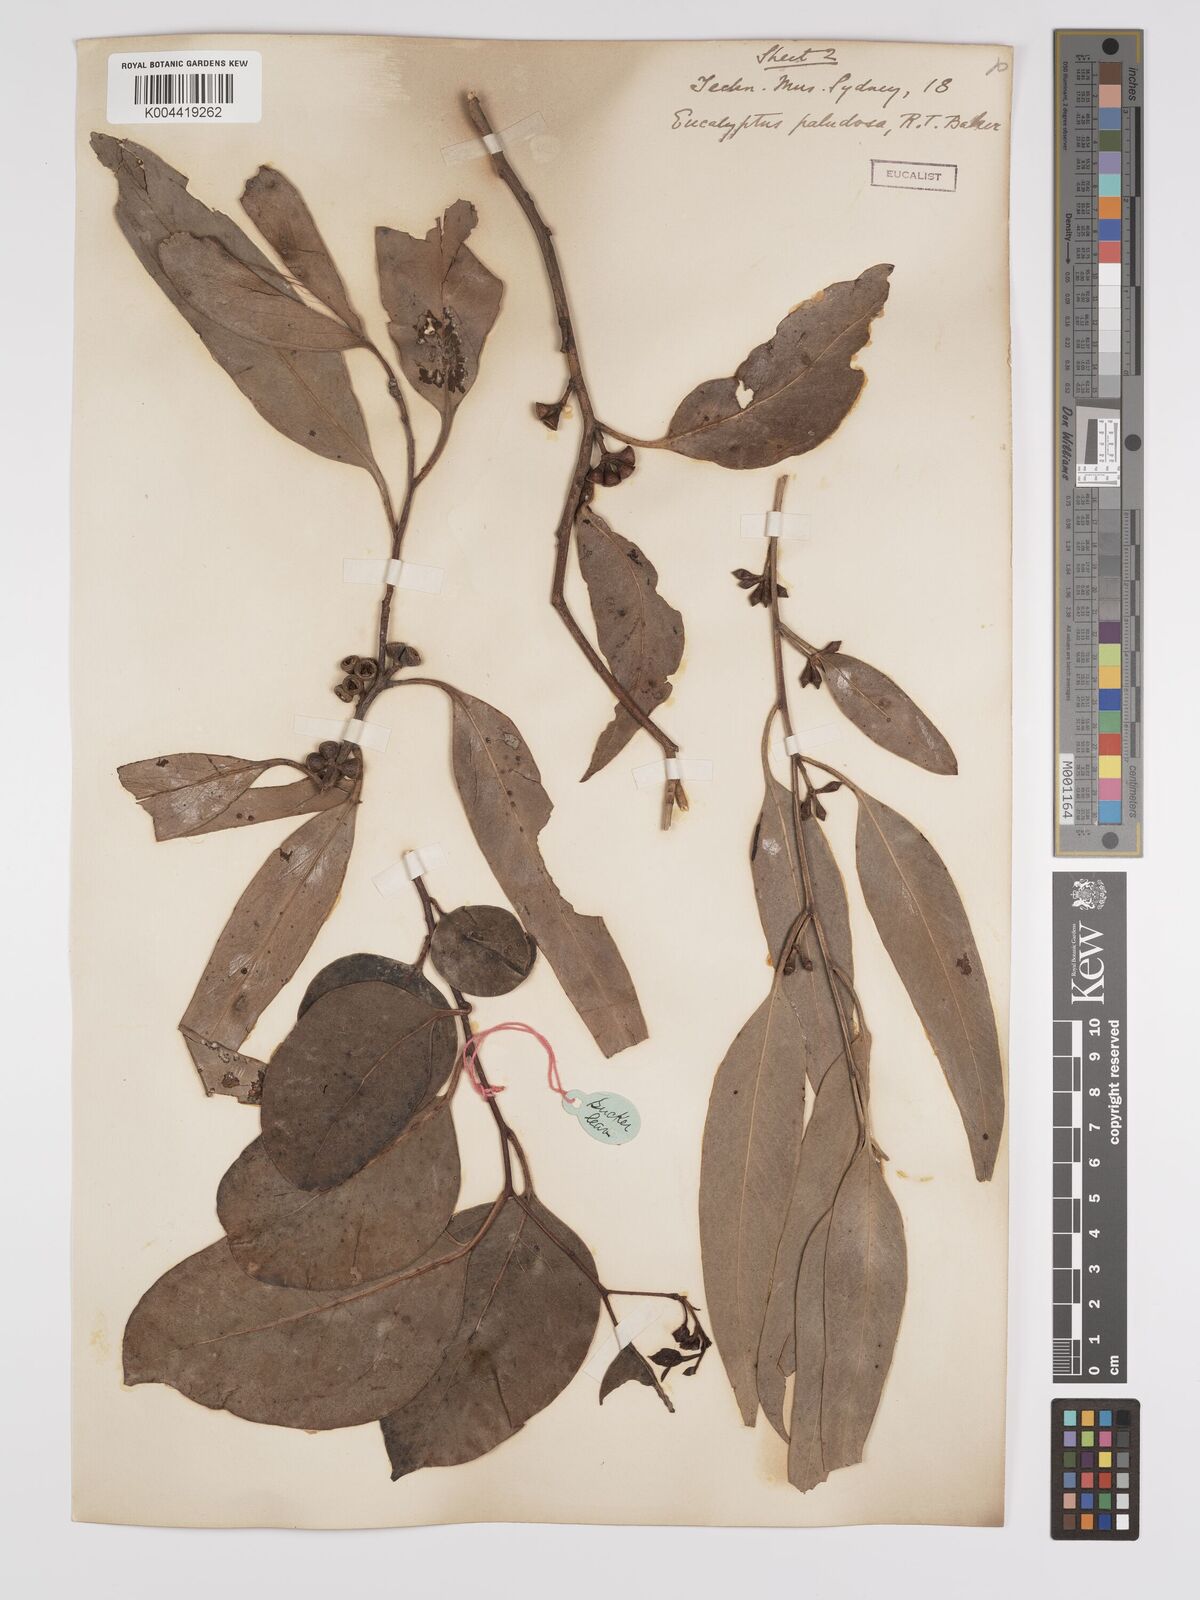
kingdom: Plantae
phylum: Tracheophyta
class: Magnoliopsida
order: Myrtales
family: Myrtaceae
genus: Eucalyptus
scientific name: Eucalyptus ovata
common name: Black-gum
